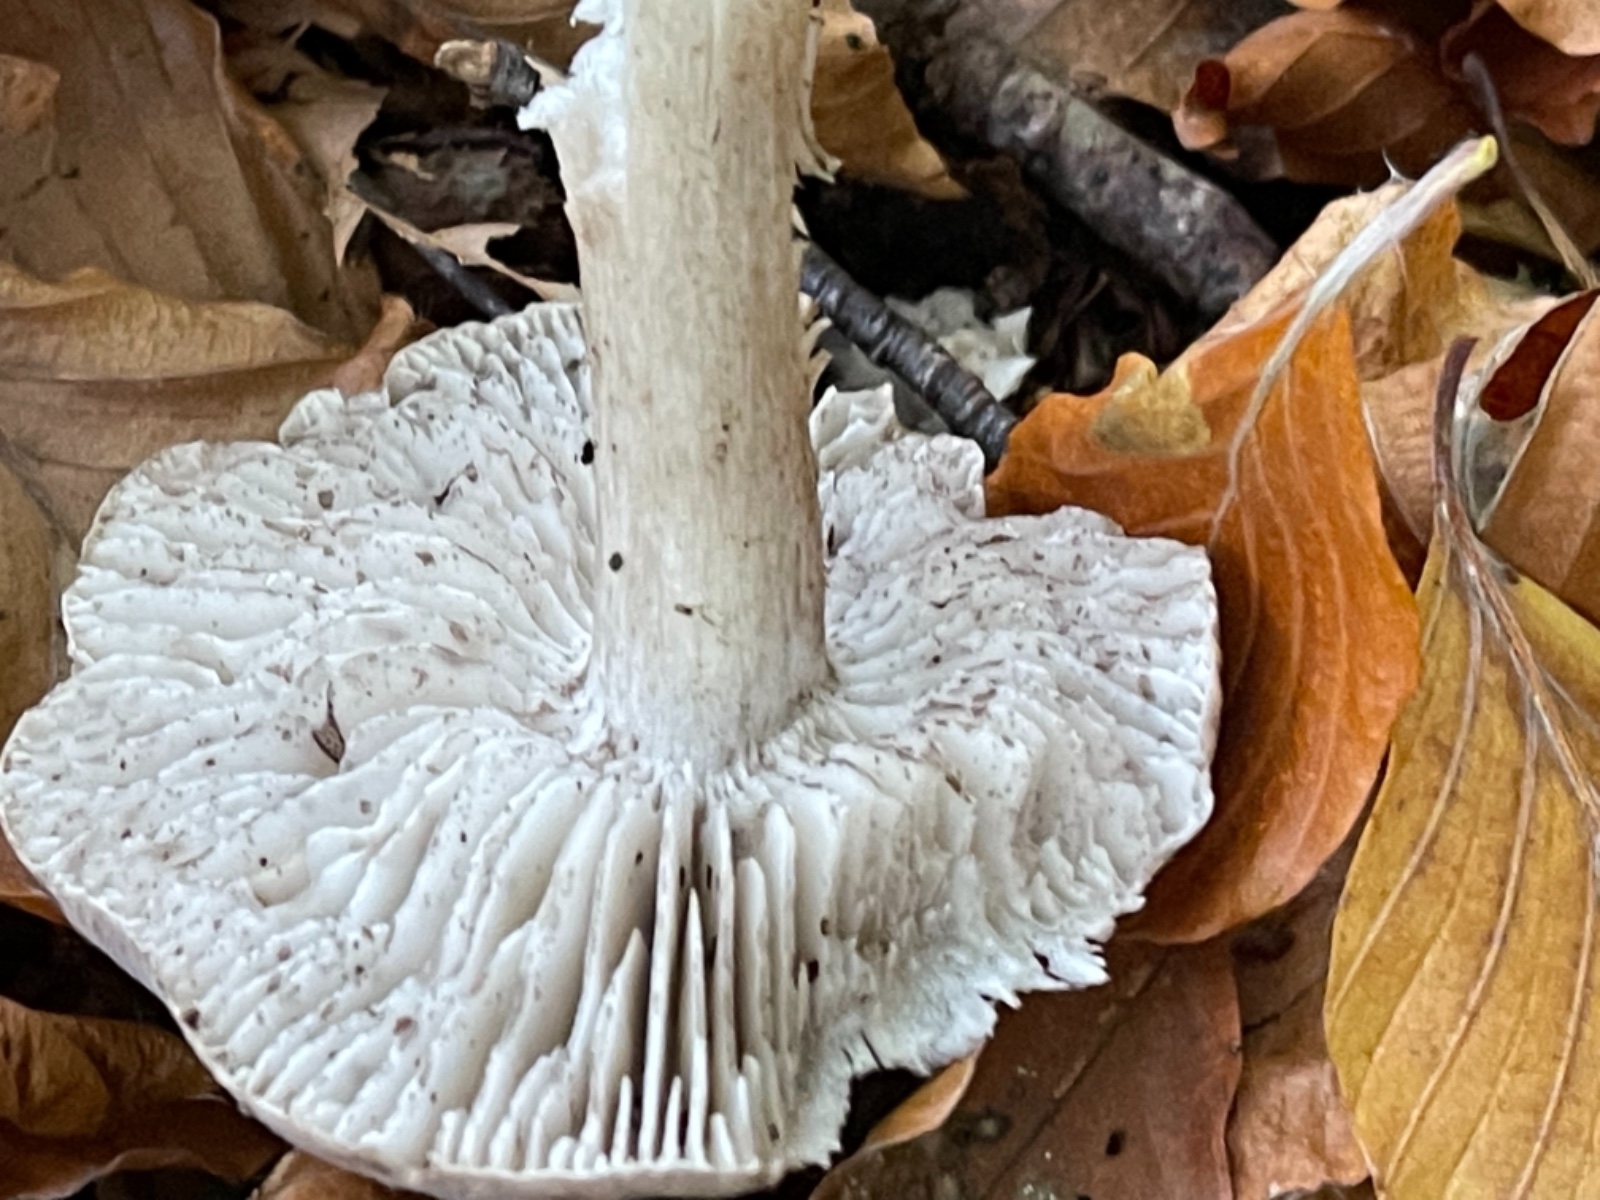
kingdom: Fungi
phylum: Basidiomycota
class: Agaricomycetes
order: Agaricales
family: Tricholomataceae
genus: Tricholoma
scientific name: Tricholoma sciodes
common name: stribet ridderhat
